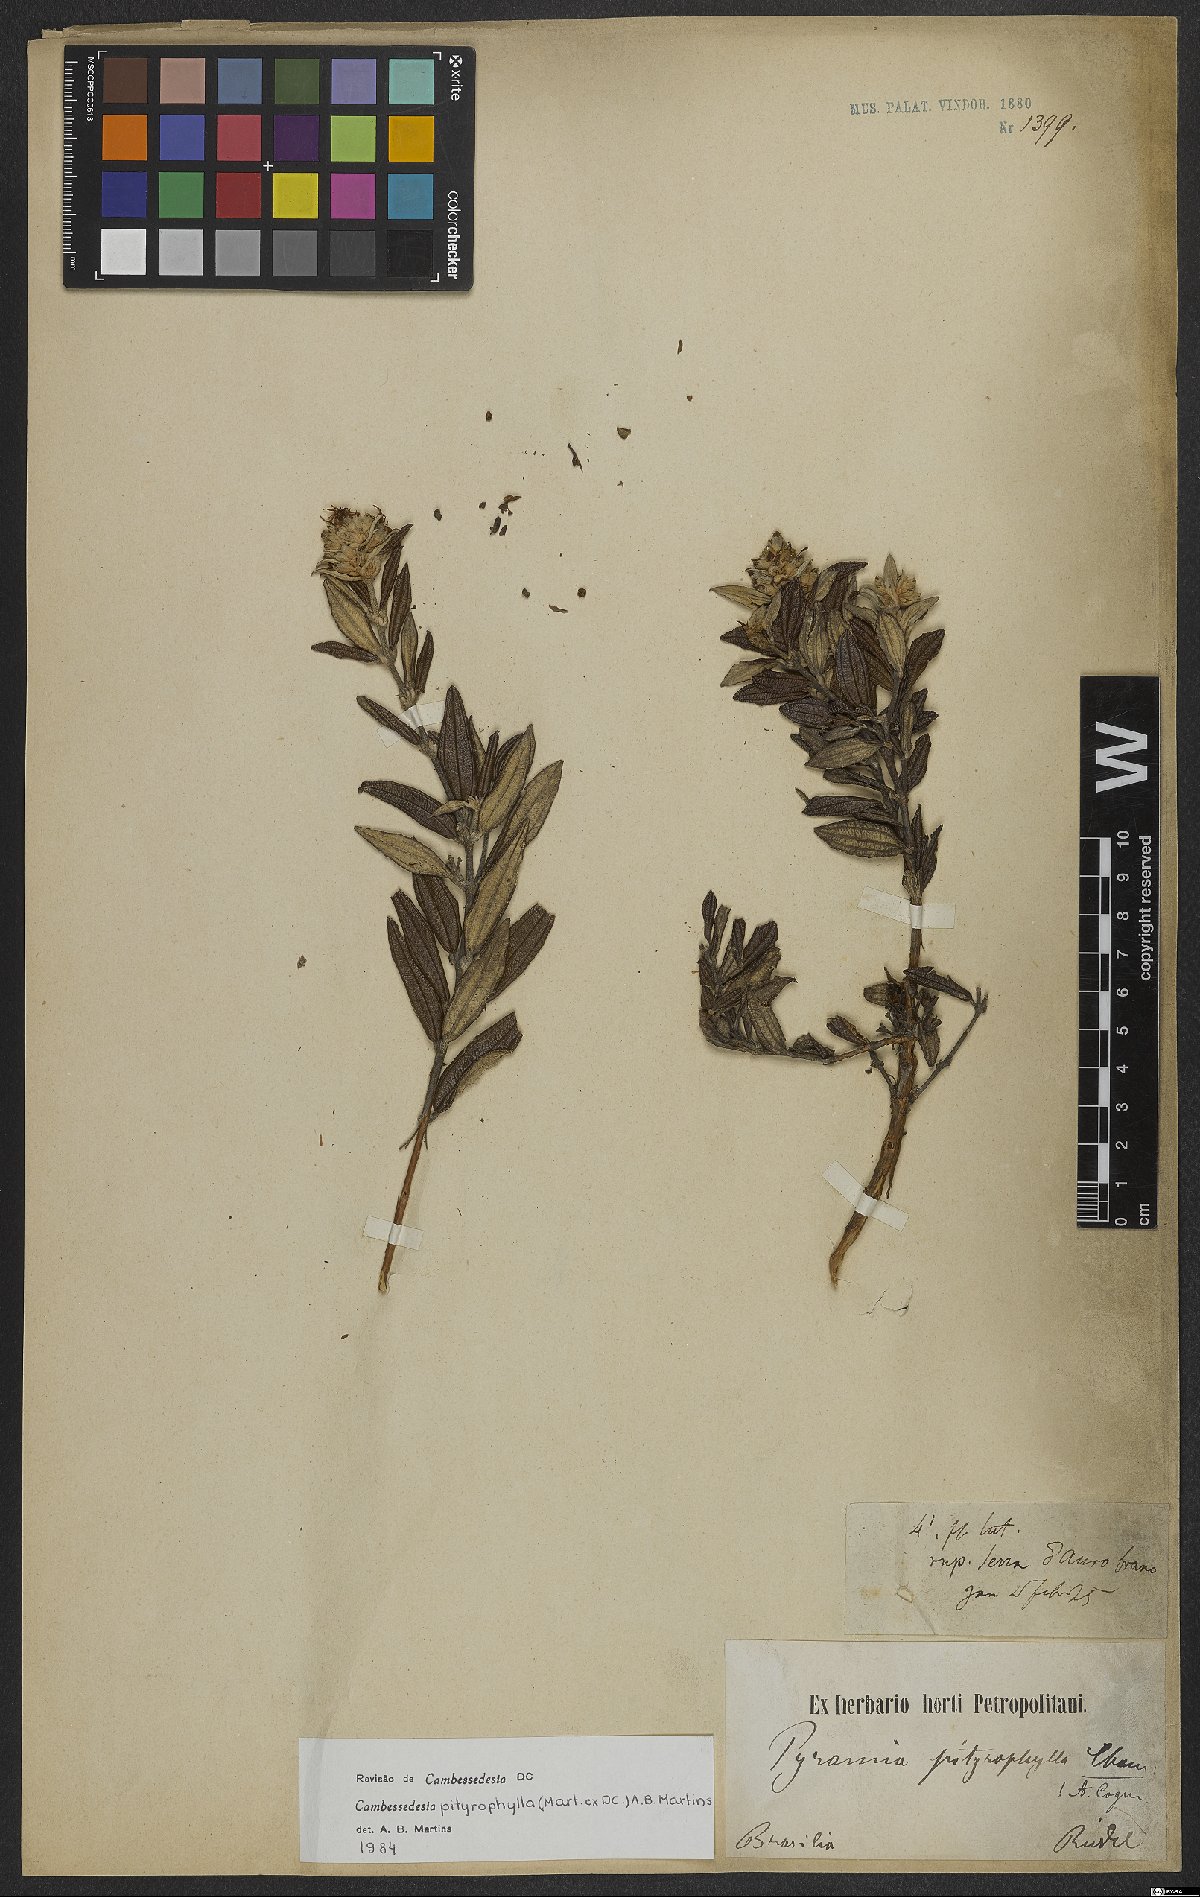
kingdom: Plantae
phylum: Tracheophyta
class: Magnoliopsida
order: Myrtales
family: Melastomataceae
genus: Cambessedesia
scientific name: Cambessedesia pityrophylla
